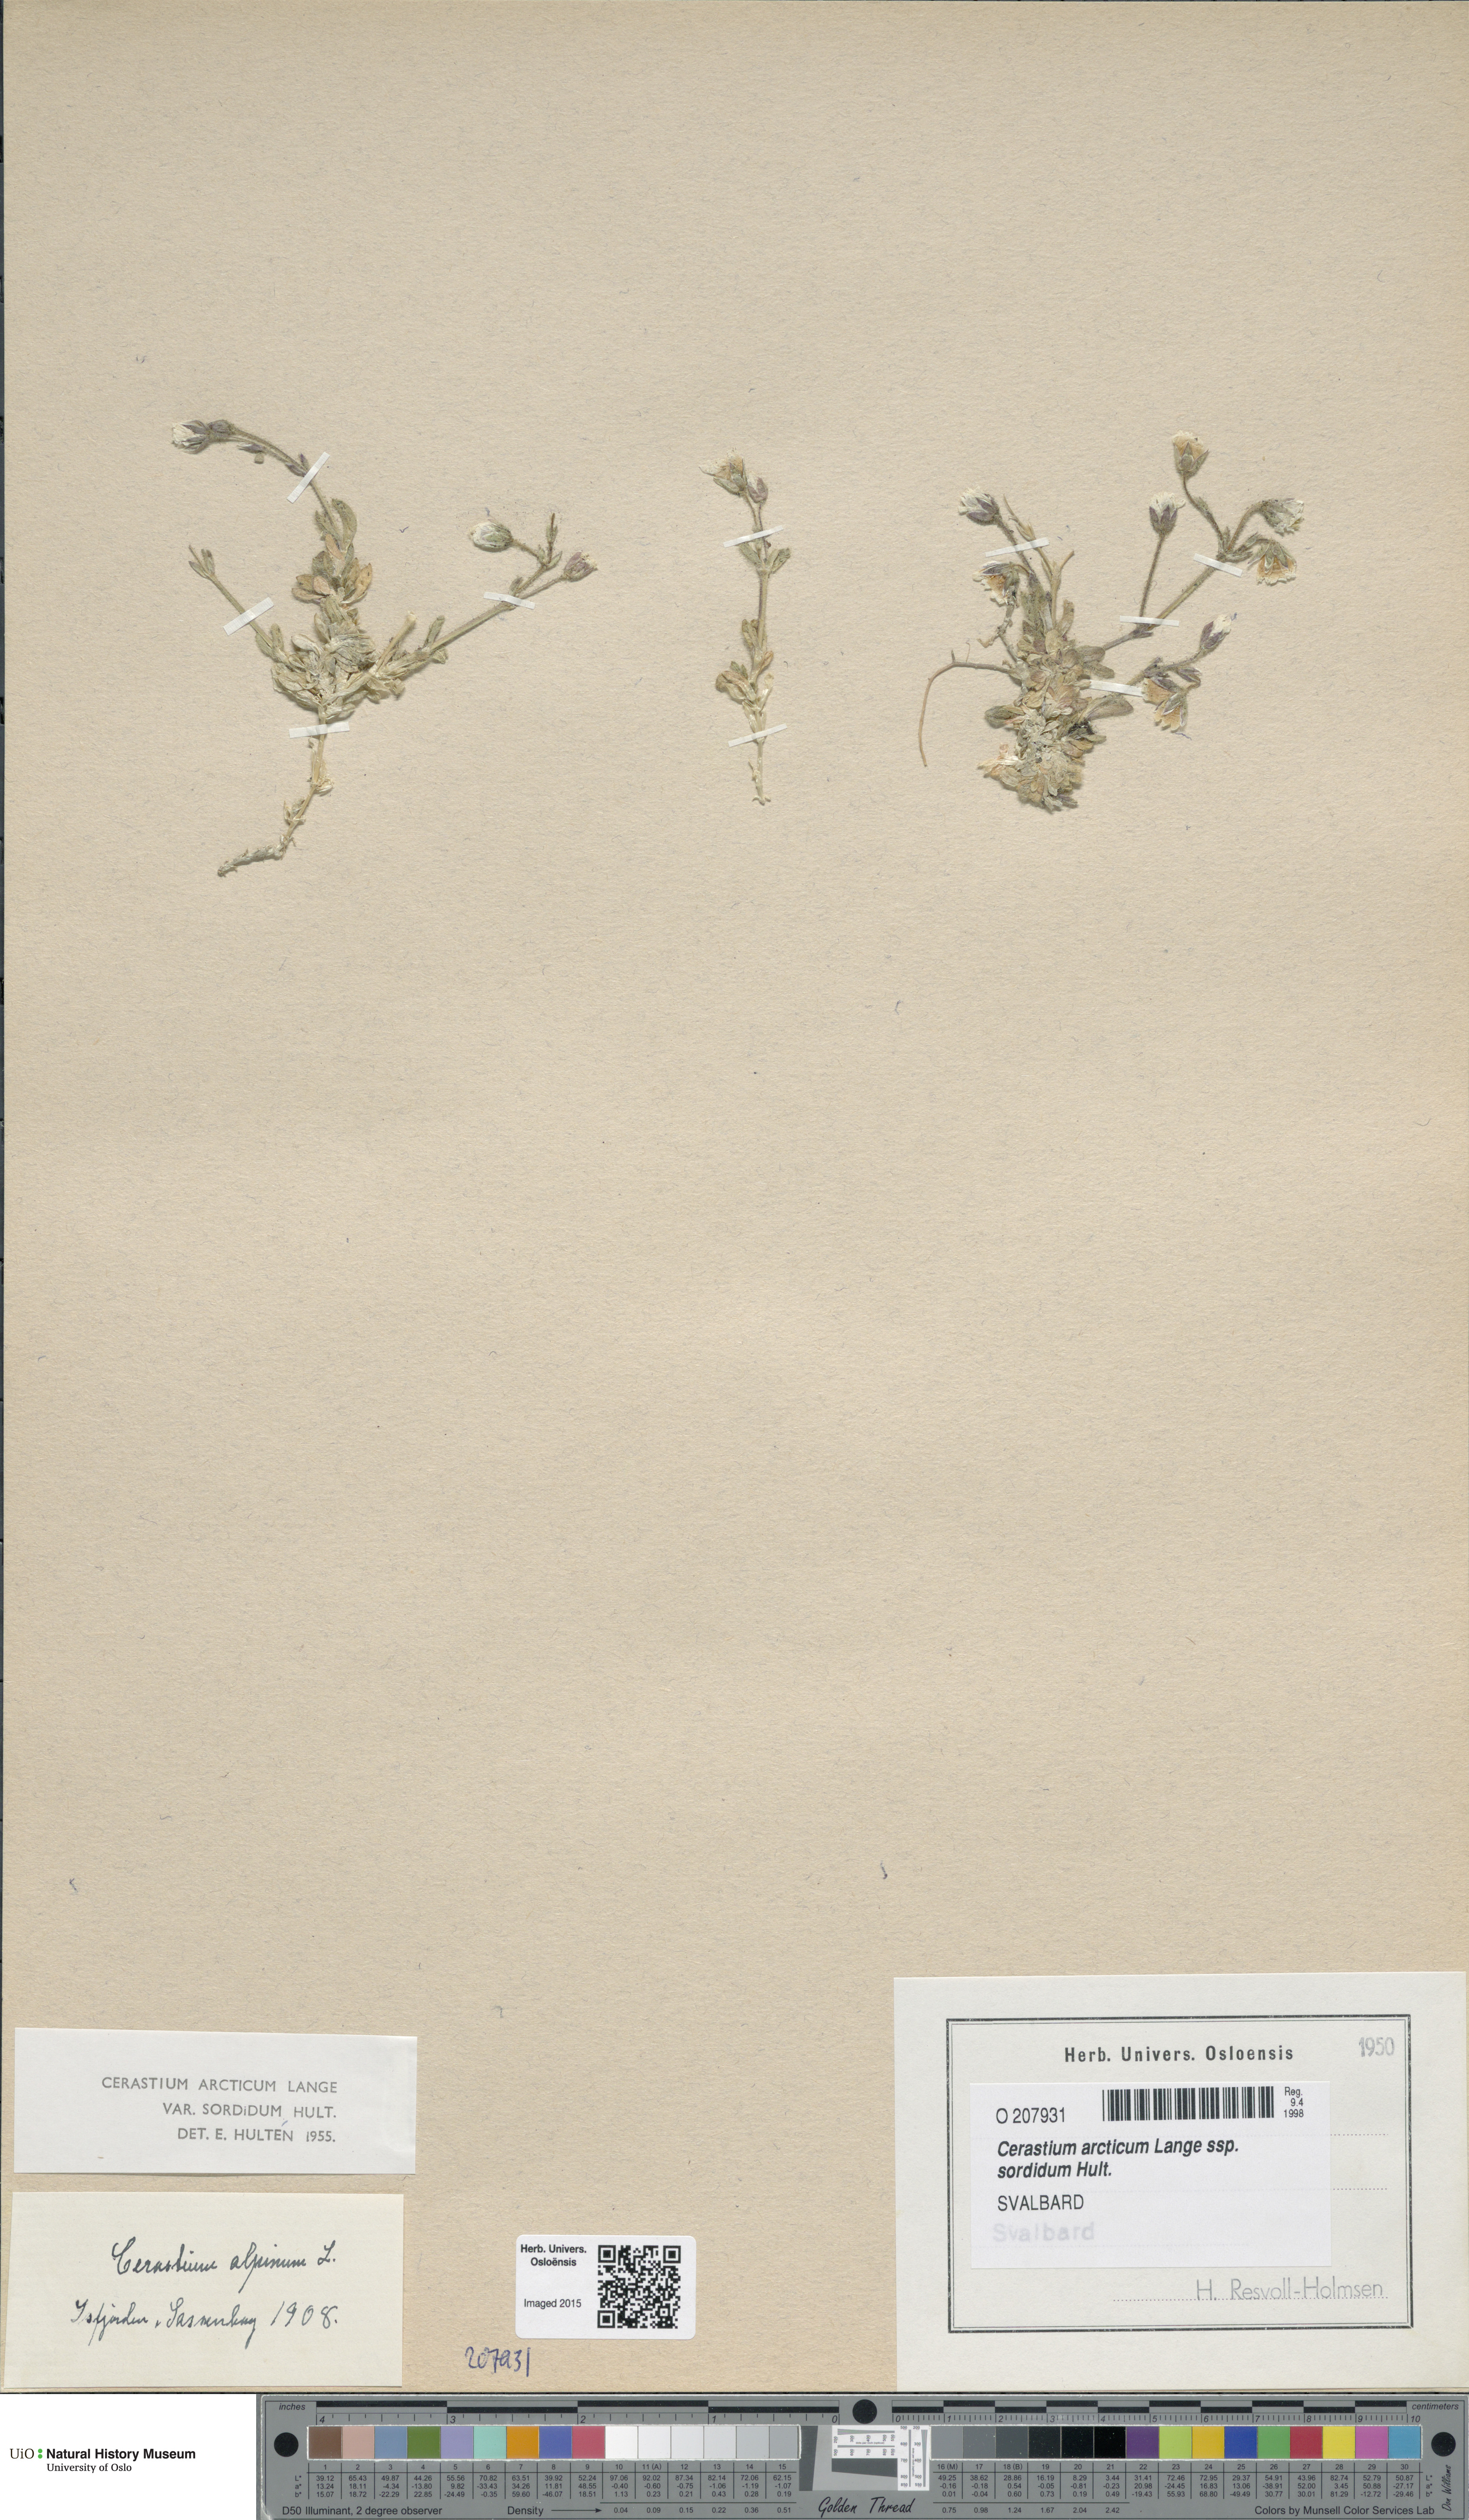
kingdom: Plantae
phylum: Tracheophyta
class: Magnoliopsida
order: Caryophyllales
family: Caryophyllaceae
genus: Cerastium
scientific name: Cerastium sordidum
